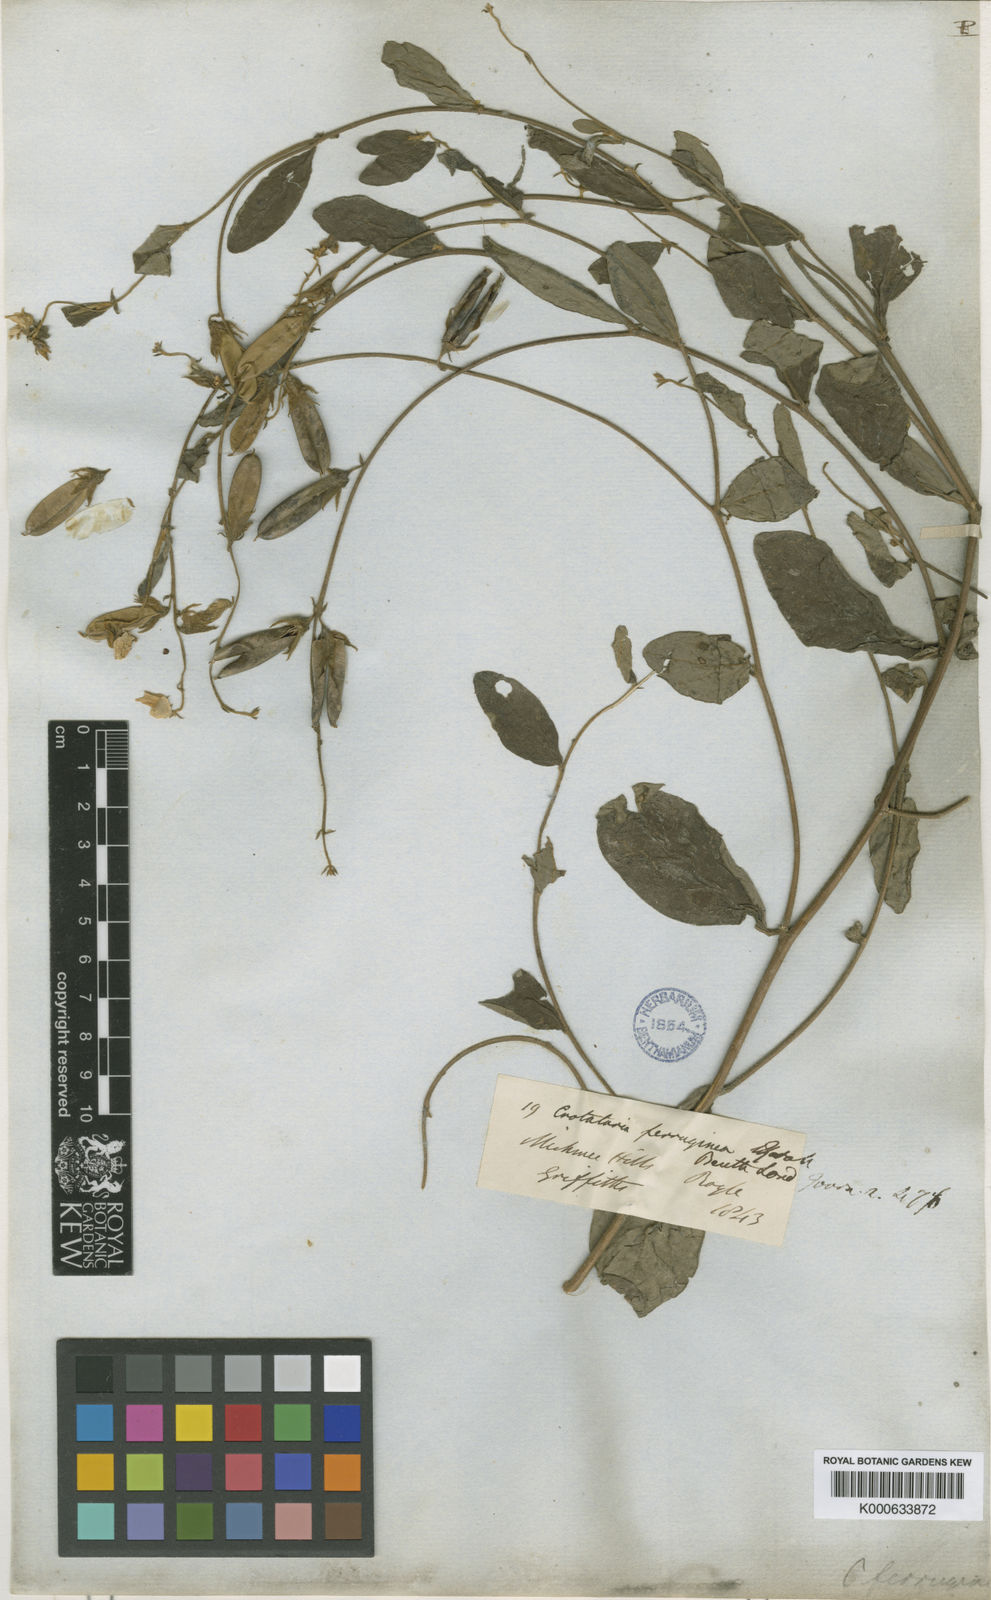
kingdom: Plantae
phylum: Tracheophyta
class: Magnoliopsida
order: Fabales
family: Fabaceae
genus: Crotalaria
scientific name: Crotalaria lejoloba
